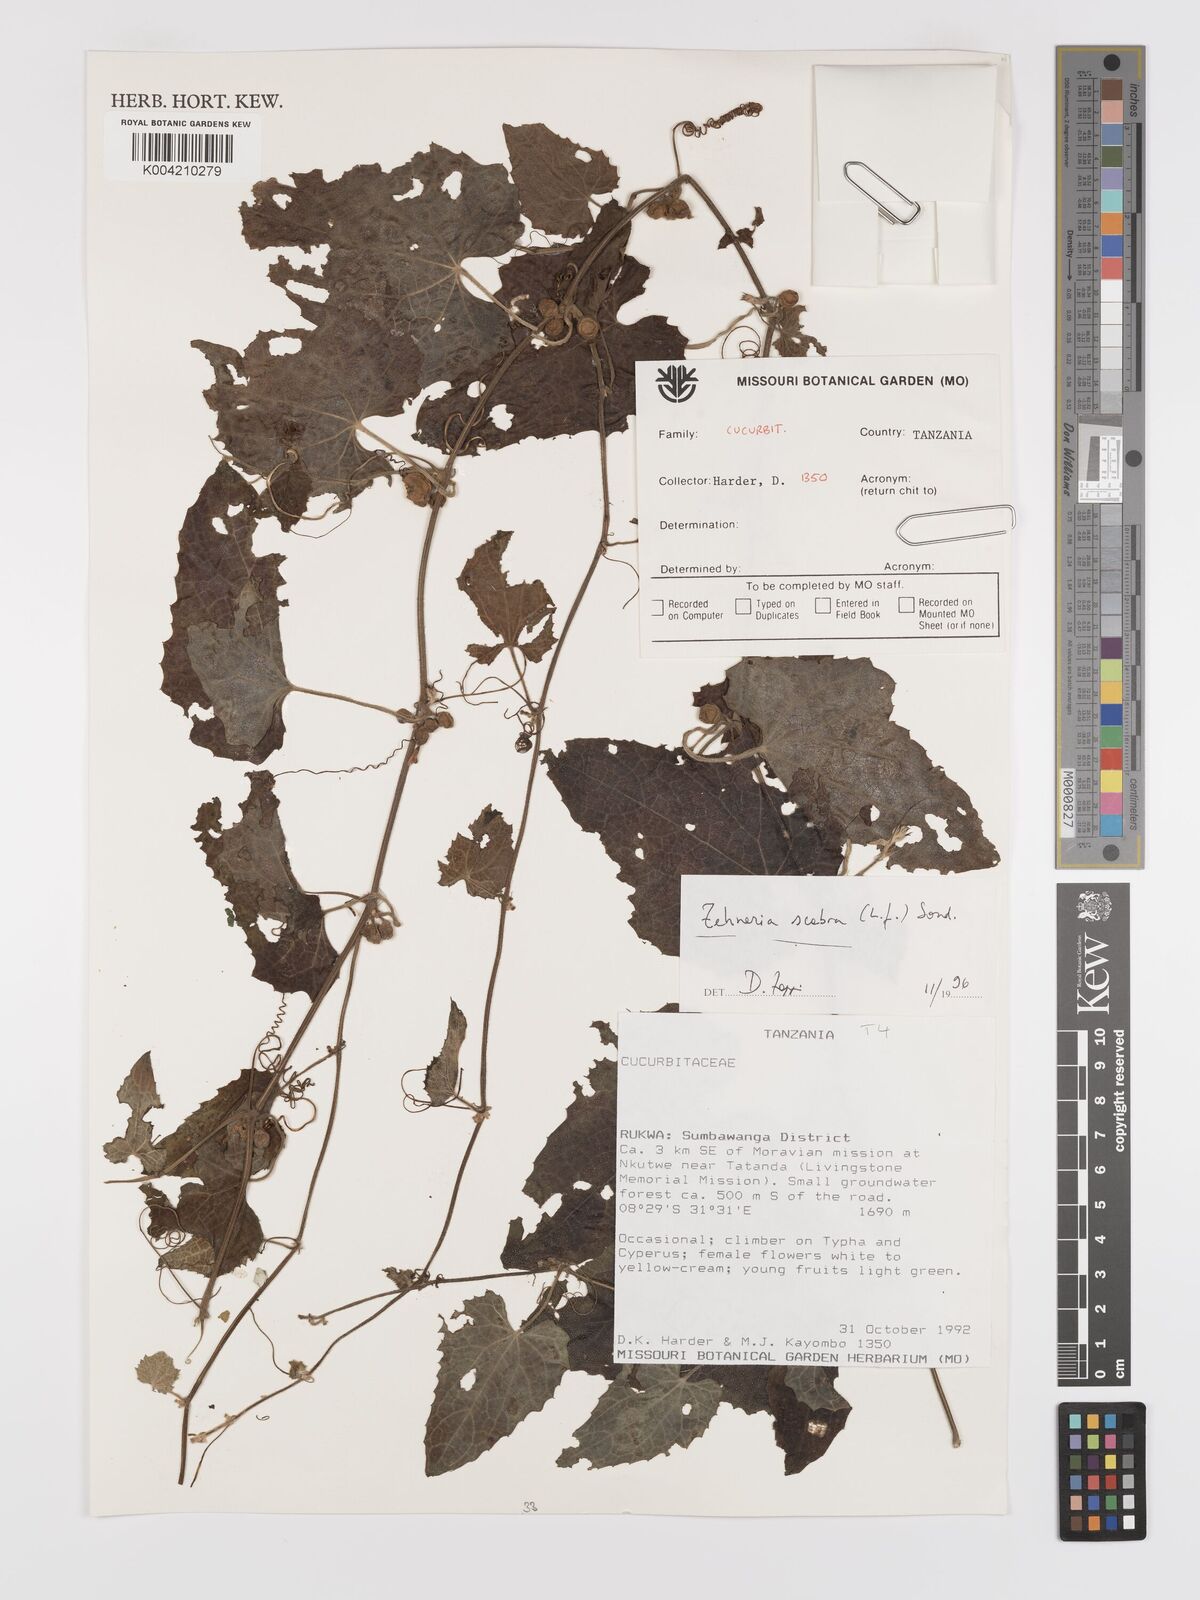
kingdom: Plantae
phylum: Tracheophyta
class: Magnoliopsida
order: Cucurbitales
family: Cucurbitaceae
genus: Zehneria
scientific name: Zehneria scabra
